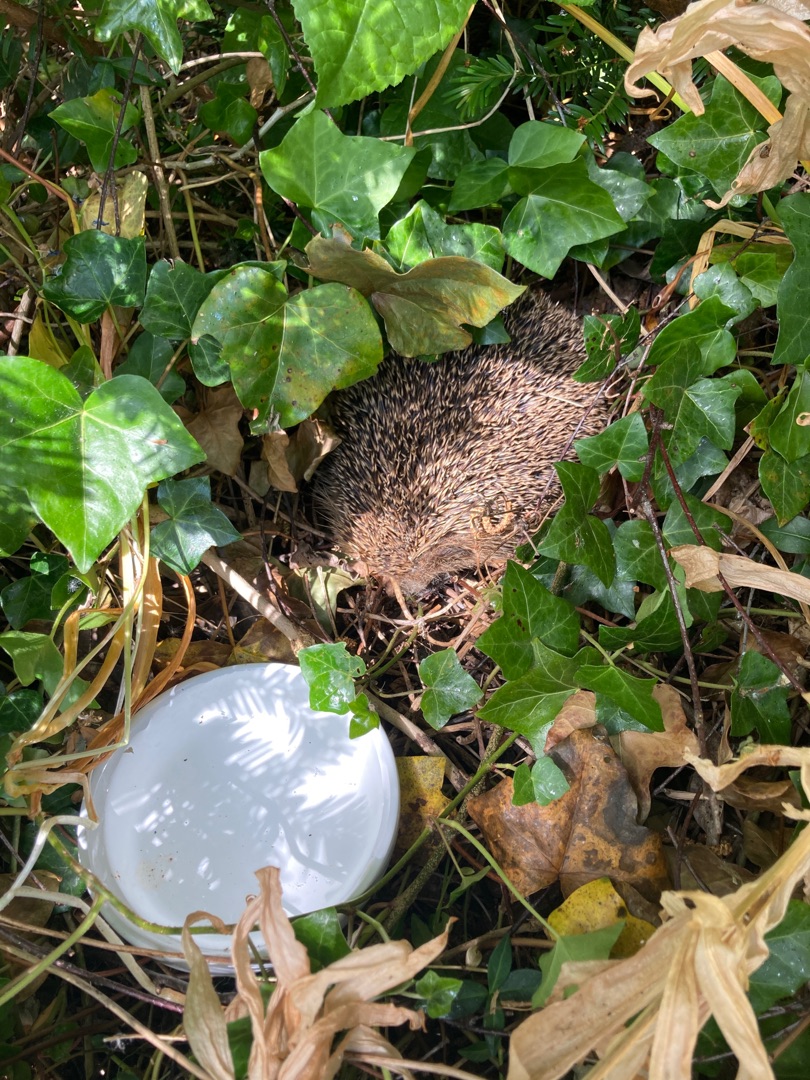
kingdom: Animalia
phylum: Chordata
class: Mammalia
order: Erinaceomorpha
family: Erinaceidae
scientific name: Erinaceidae
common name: Pindsvin
